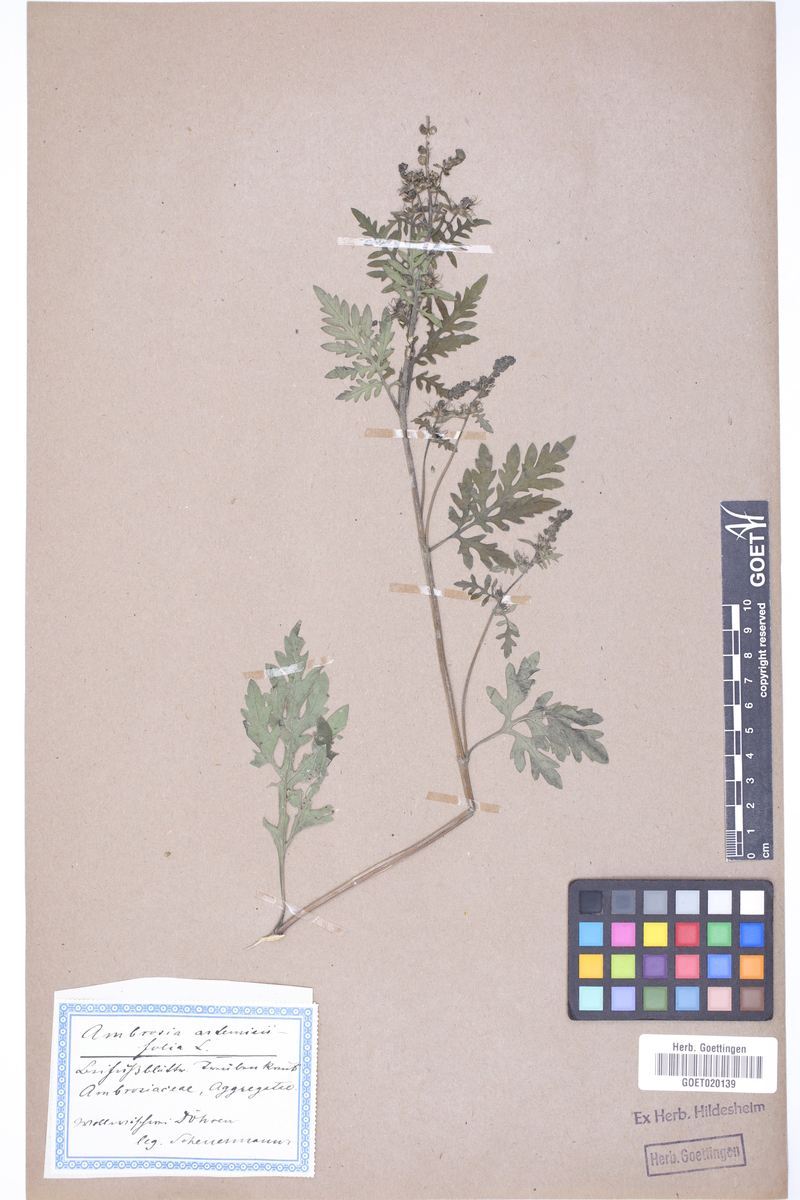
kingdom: Plantae
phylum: Tracheophyta
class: Magnoliopsida
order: Asterales
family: Asteraceae
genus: Ambrosia
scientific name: Ambrosia artemisiifolia
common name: Annual ragweed
